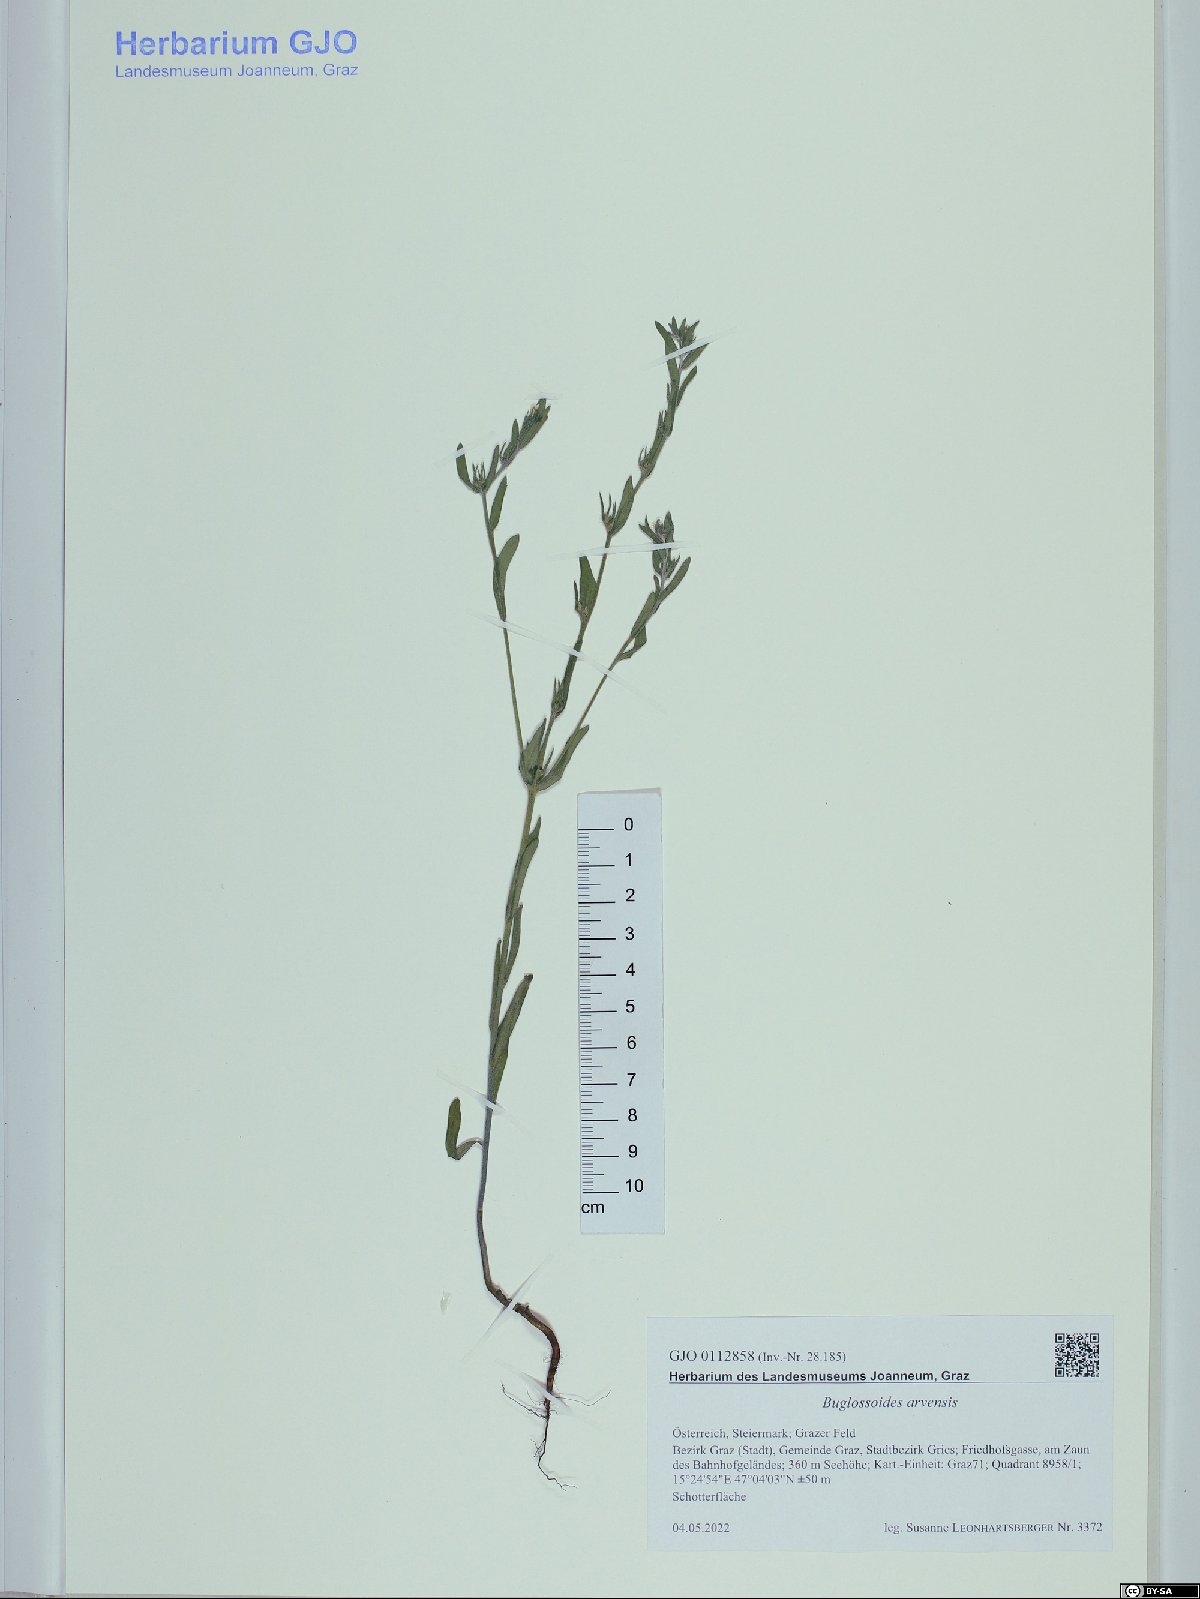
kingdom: Plantae
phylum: Tracheophyta
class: Magnoliopsida
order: Boraginales
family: Boraginaceae
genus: Buglossoides
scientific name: Buglossoides arvensis
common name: Corn gromwell
